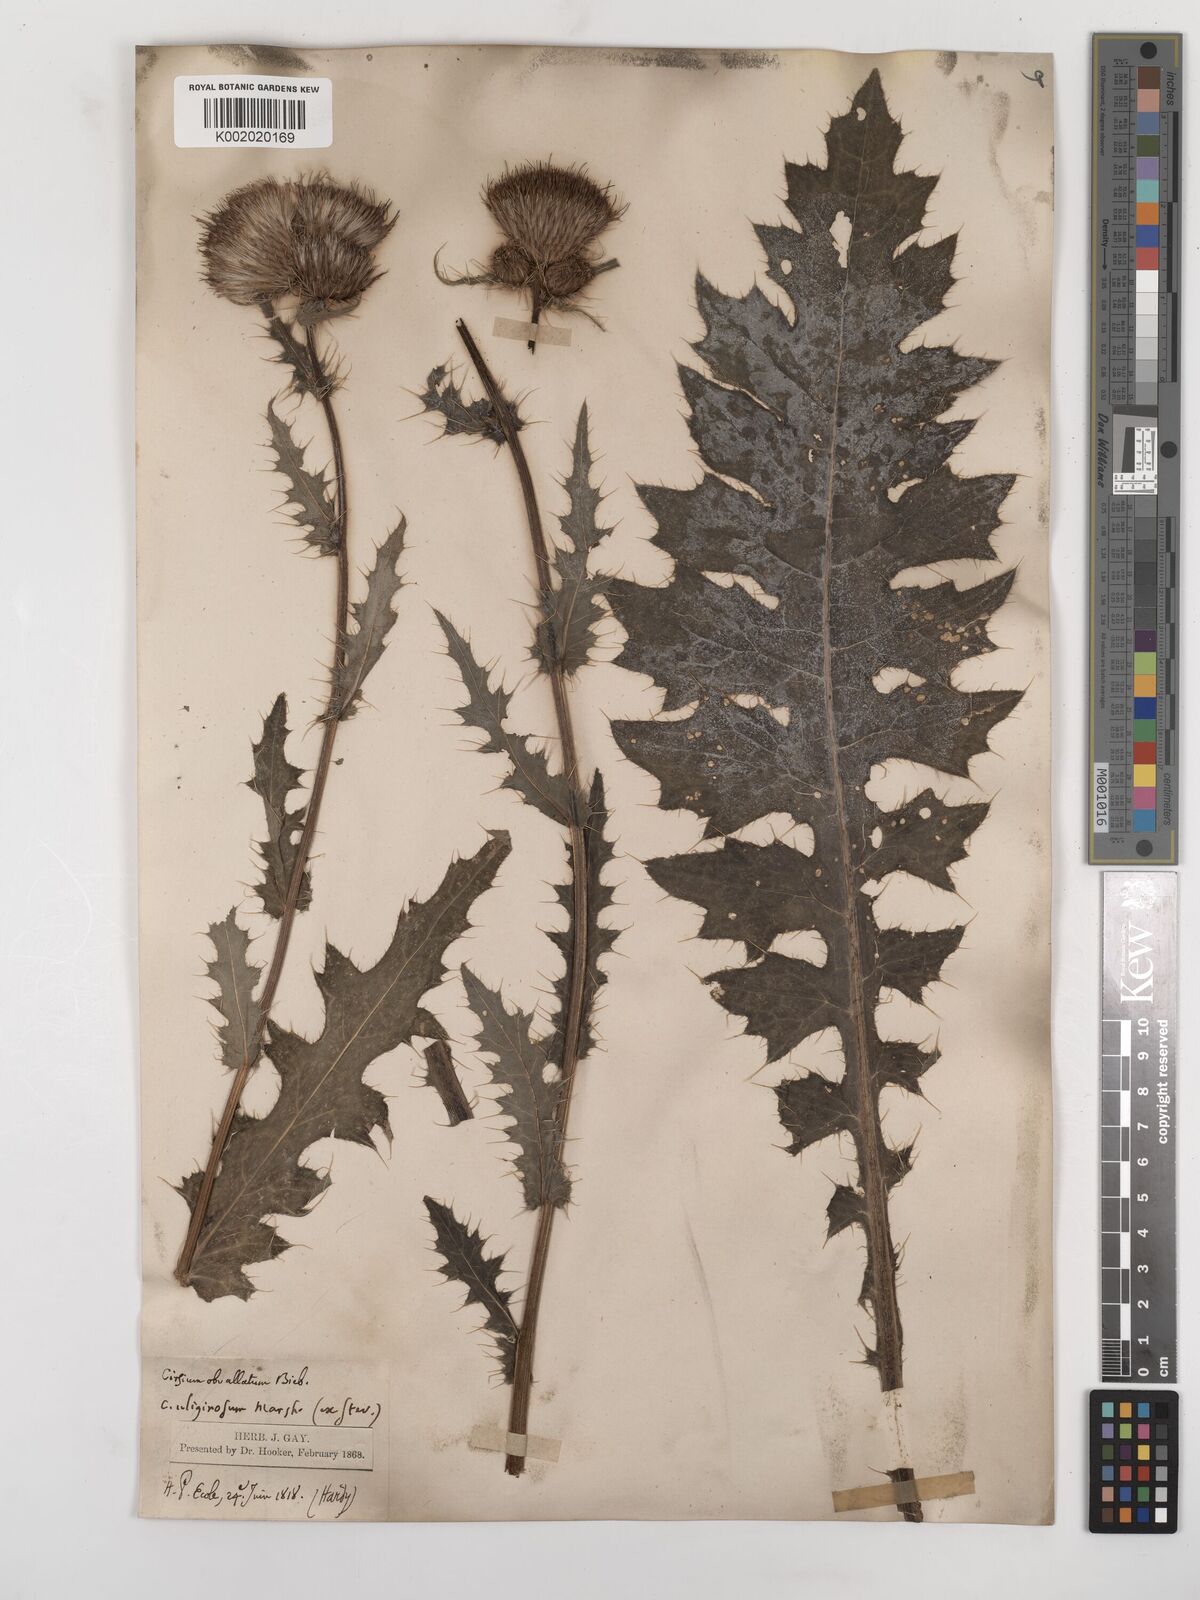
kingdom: Plantae
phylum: Tracheophyta
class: Magnoliopsida
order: Asterales
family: Asteraceae
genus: Cirsium
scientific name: Cirsium obvallatum
